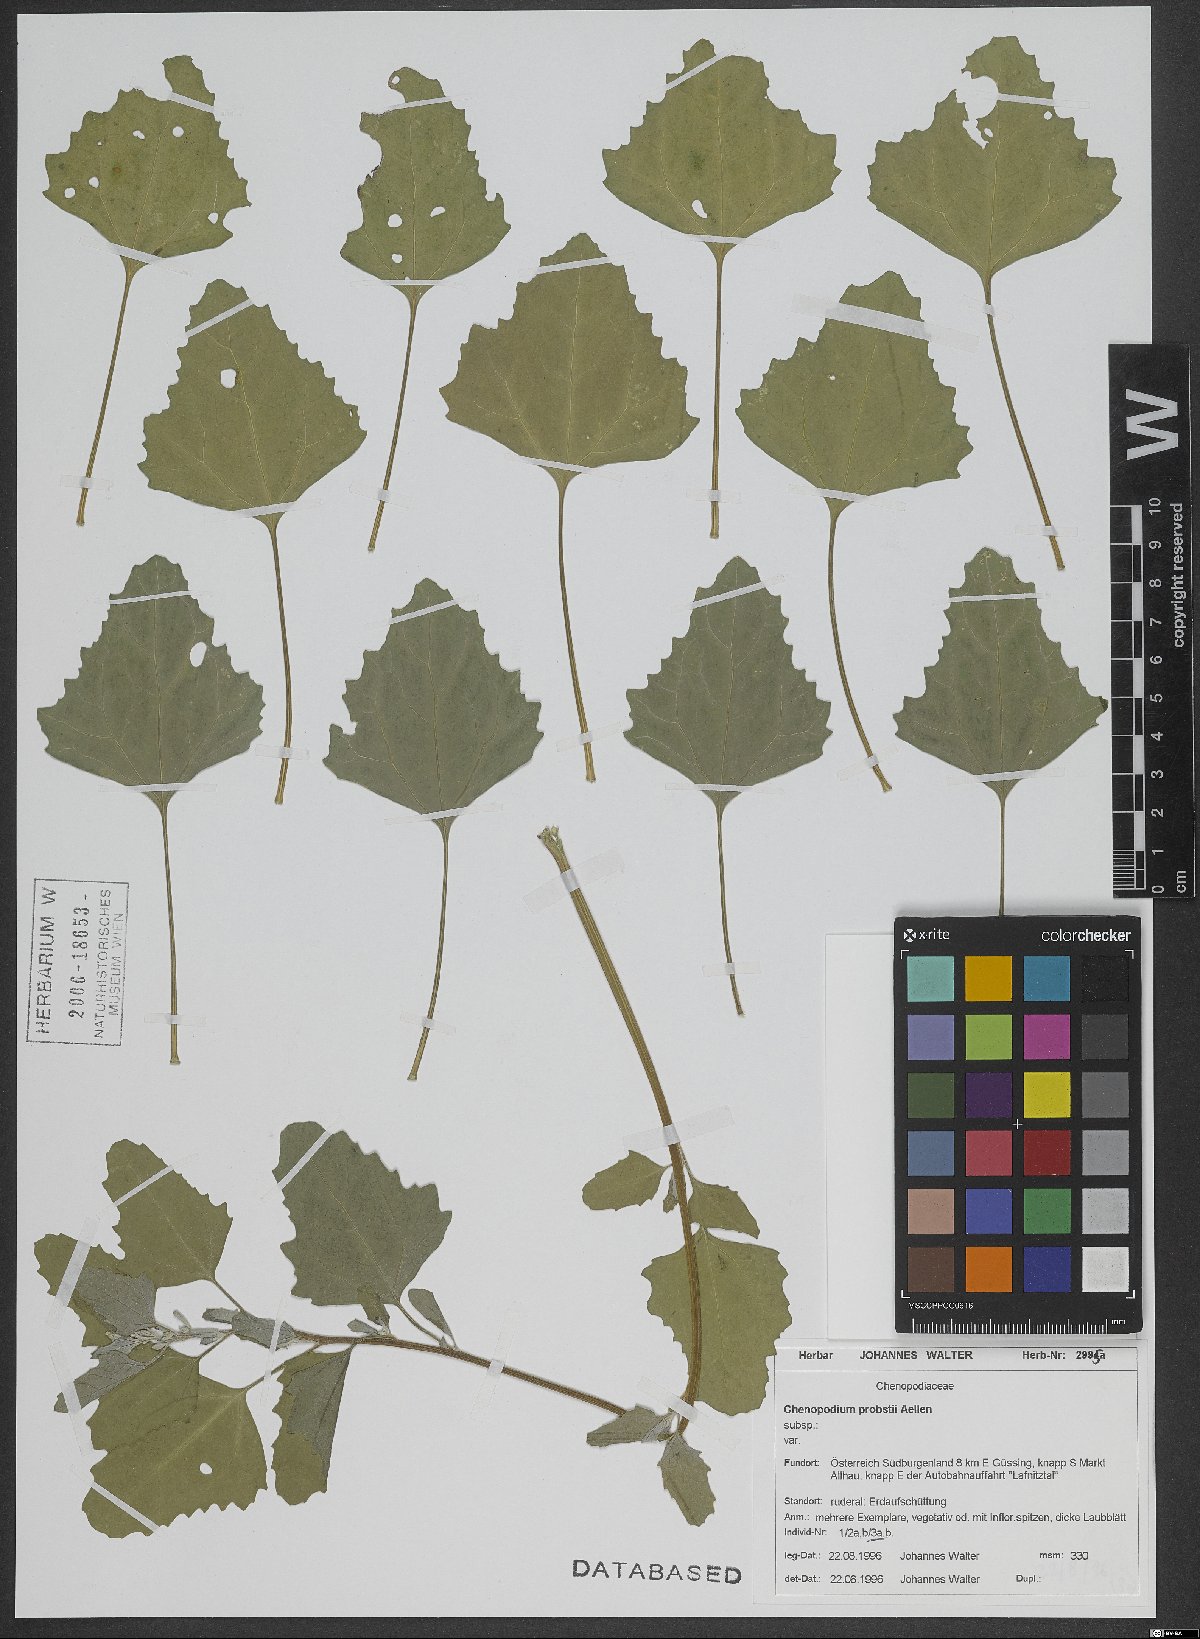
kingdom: Plantae
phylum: Tracheophyta
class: Magnoliopsida
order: Caryophyllales
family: Amaranthaceae
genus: Chenopodium
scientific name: Chenopodium probstii
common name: Probst's goosefoot
